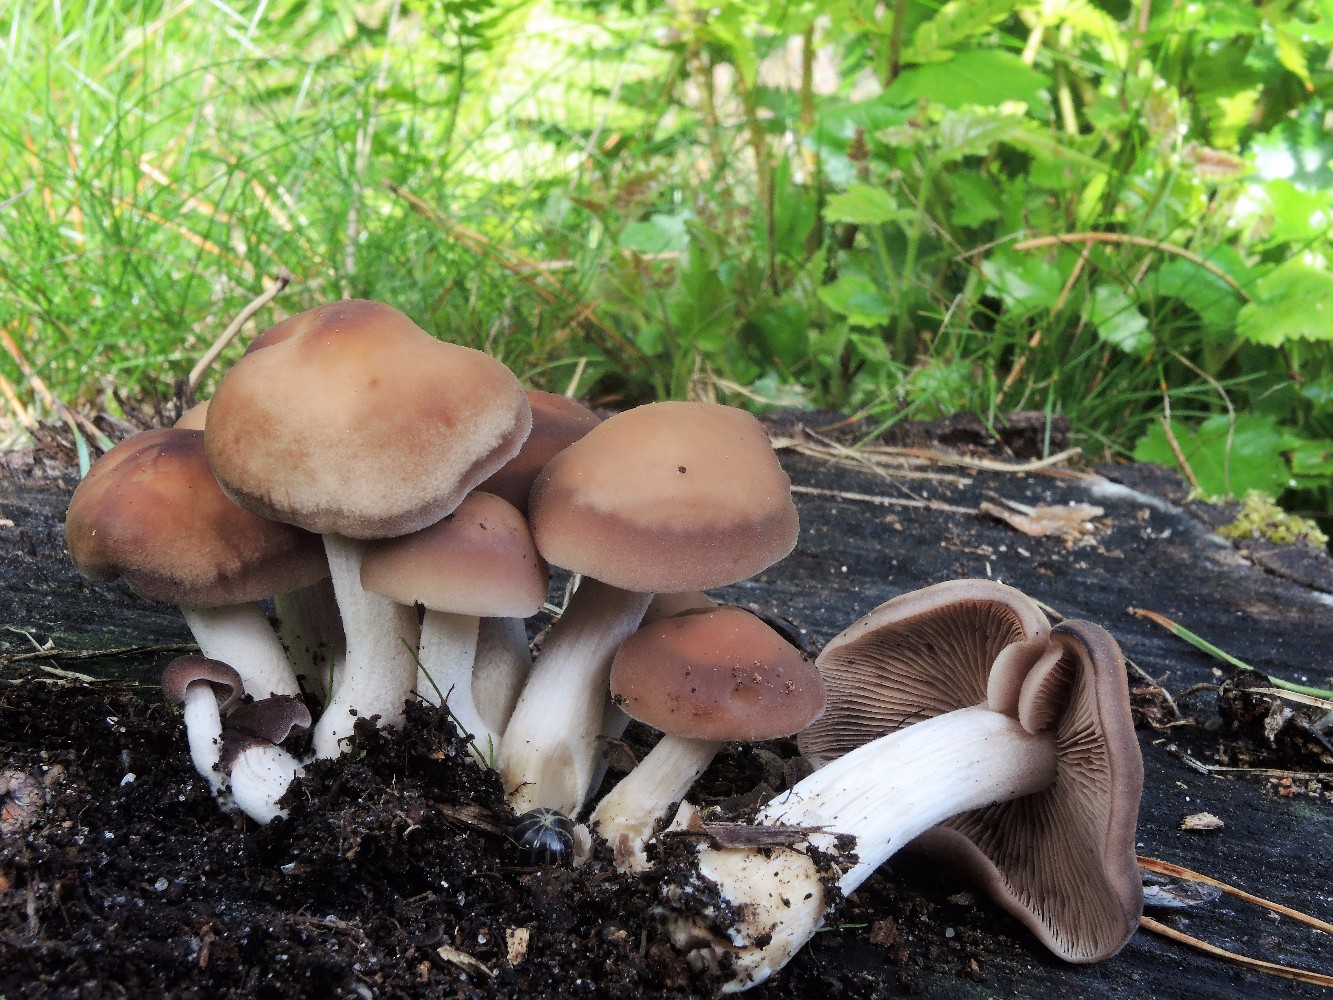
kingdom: Fungi
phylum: Basidiomycota
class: Agaricomycetes
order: Agaricales
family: Psathyrellaceae
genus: Psathyrella
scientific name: Psathyrella piluliformis
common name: lysstokket mørkhat
